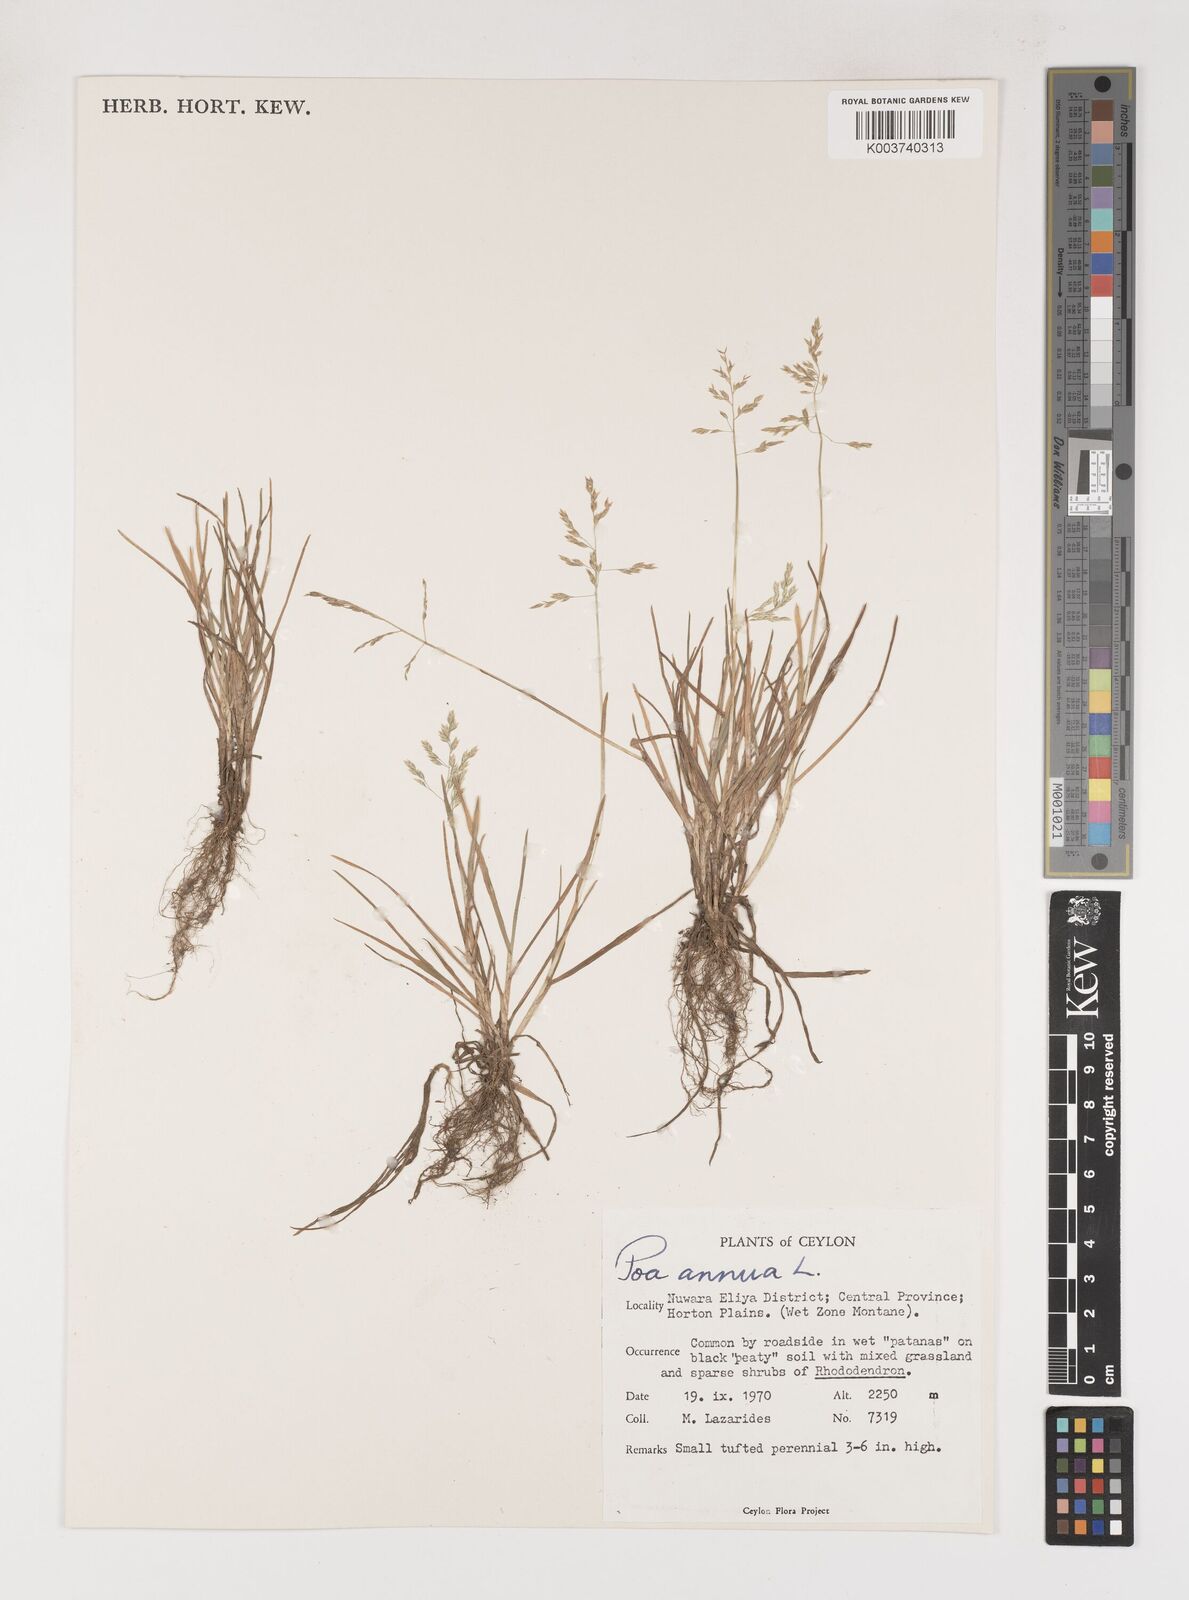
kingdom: Plantae
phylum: Tracheophyta
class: Liliopsida
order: Poales
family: Poaceae
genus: Poa
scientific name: Poa annua
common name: Annual bluegrass
